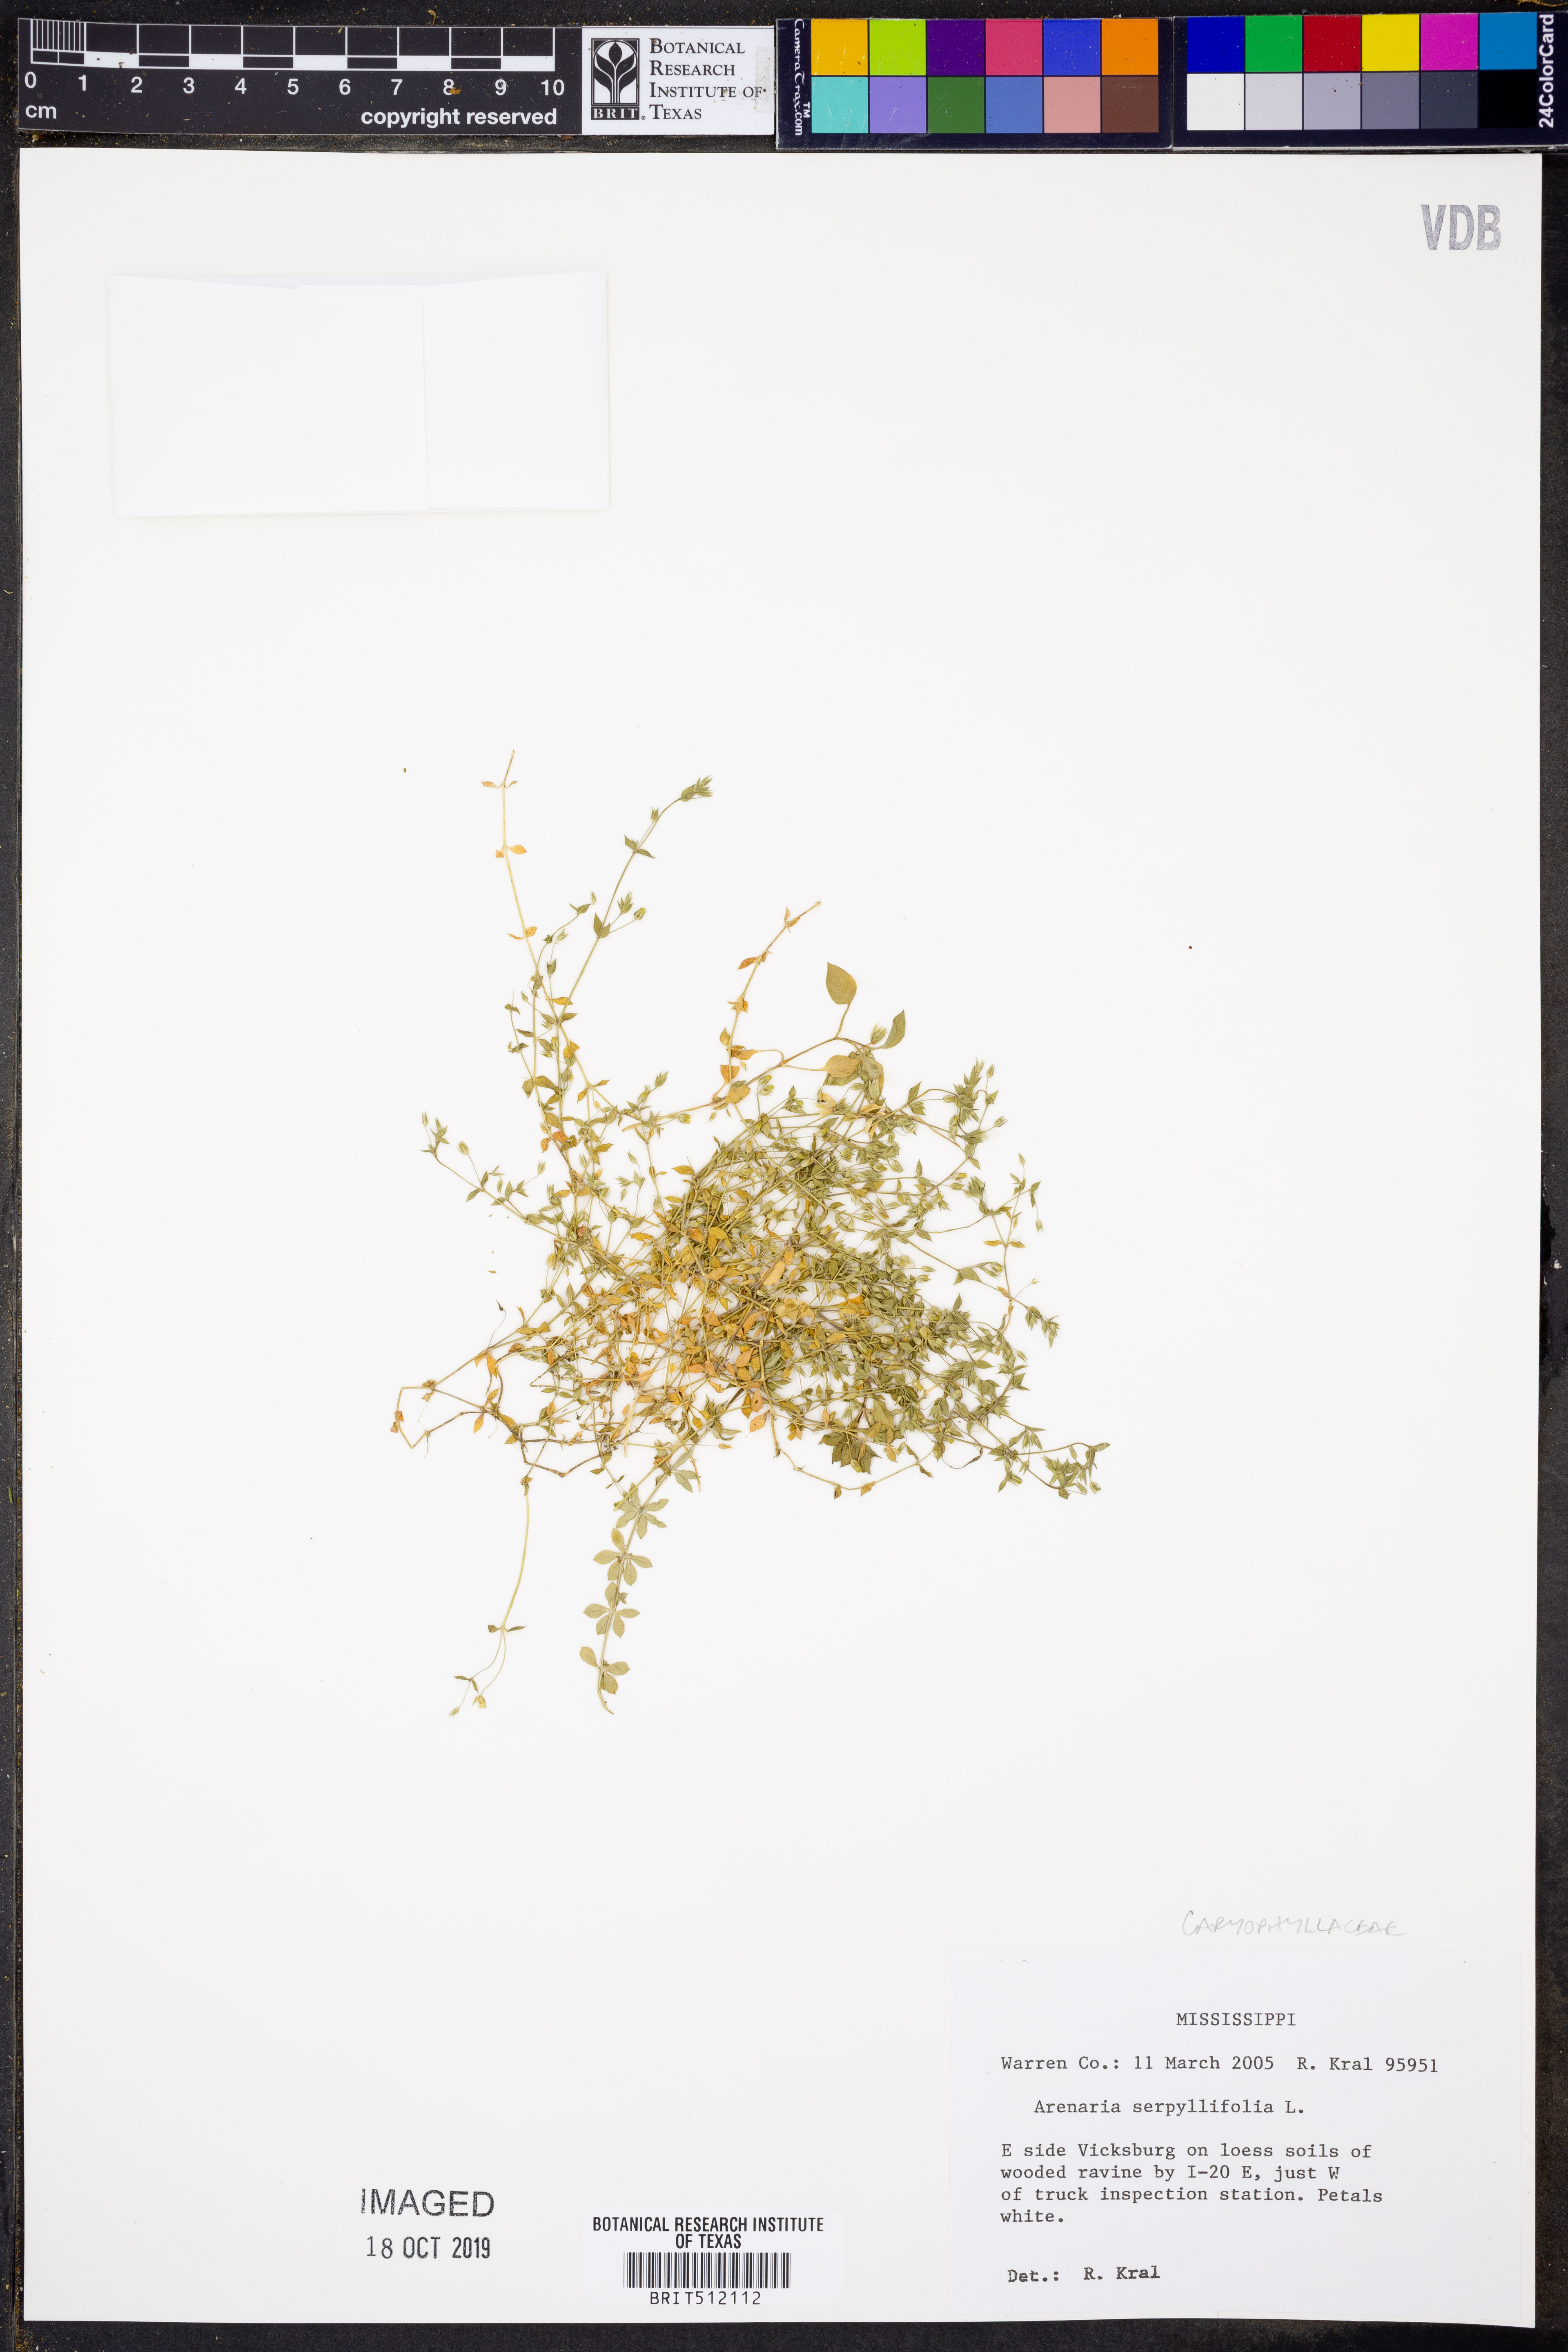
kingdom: Plantae
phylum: Tracheophyta
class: Magnoliopsida
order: Caryophyllales
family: Caryophyllaceae
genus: Arenaria
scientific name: Arenaria serpyllifolia
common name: Thyme-leaved sandwort
